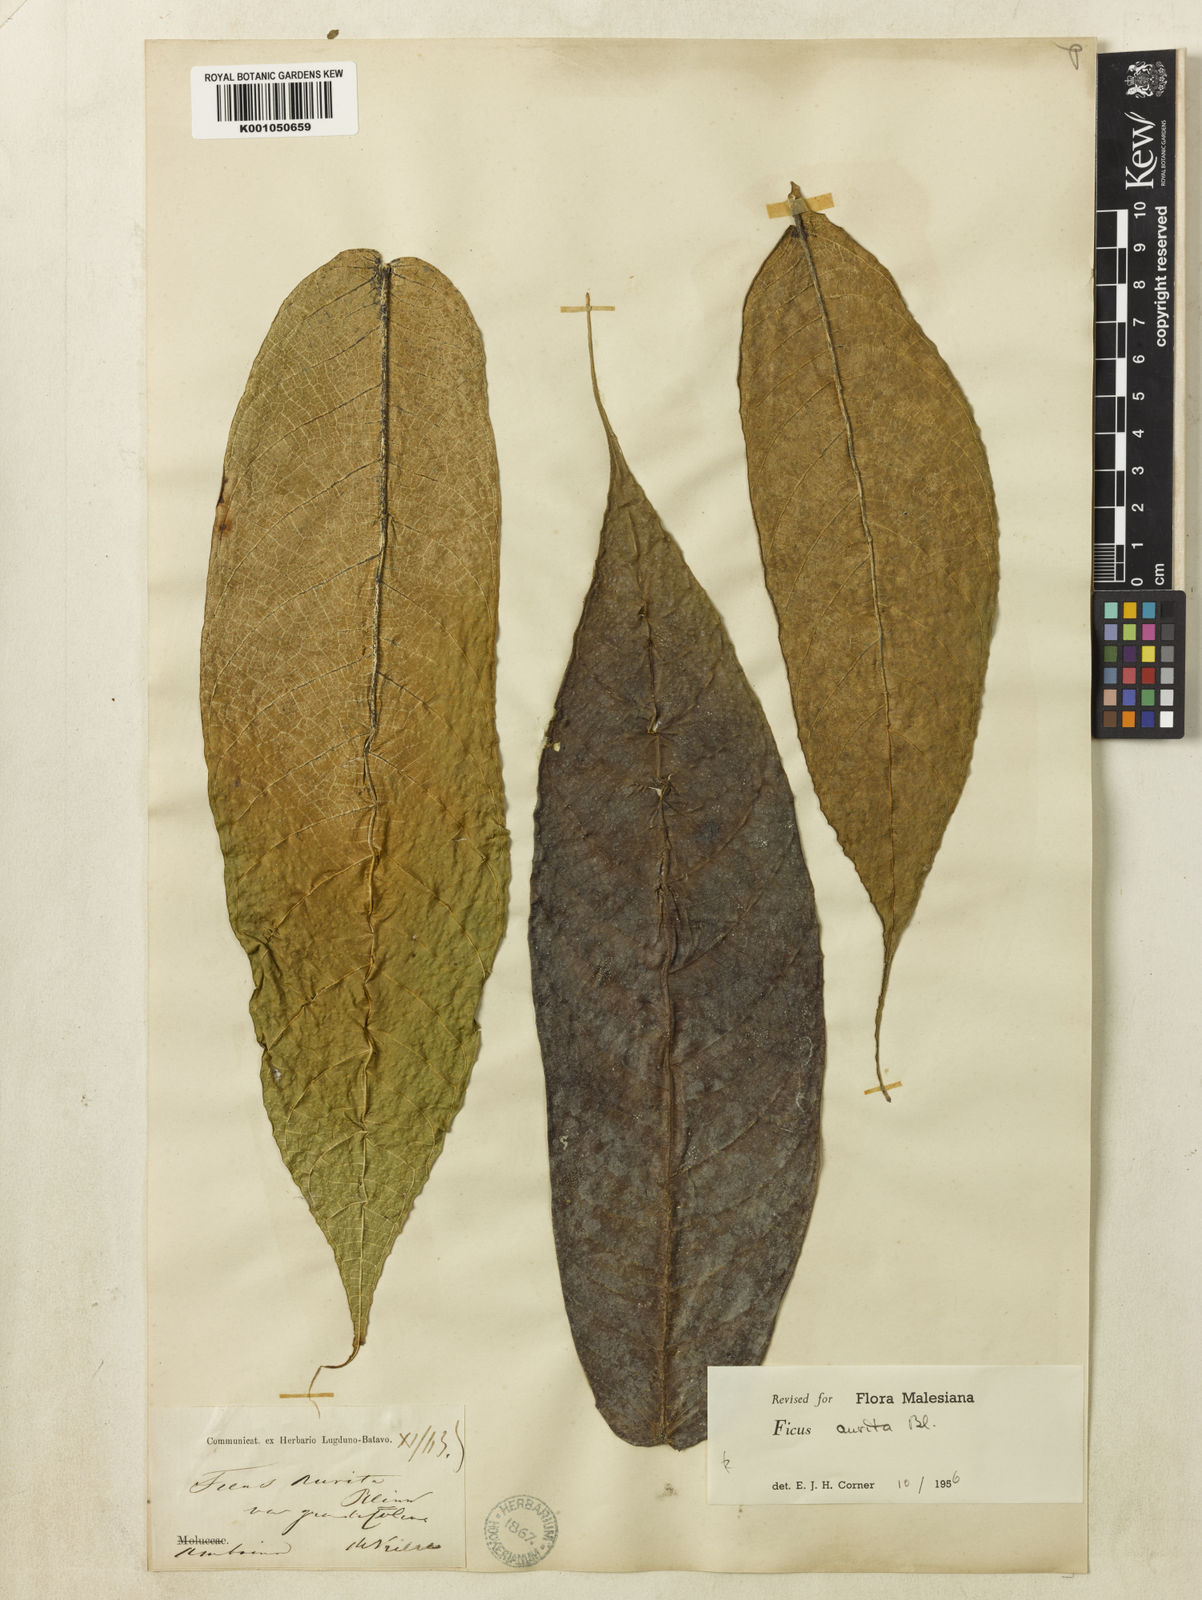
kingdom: Plantae
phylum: Tracheophyta
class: Magnoliopsida
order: Rosales
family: Moraceae
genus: Ficus
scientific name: Ficus aurita
